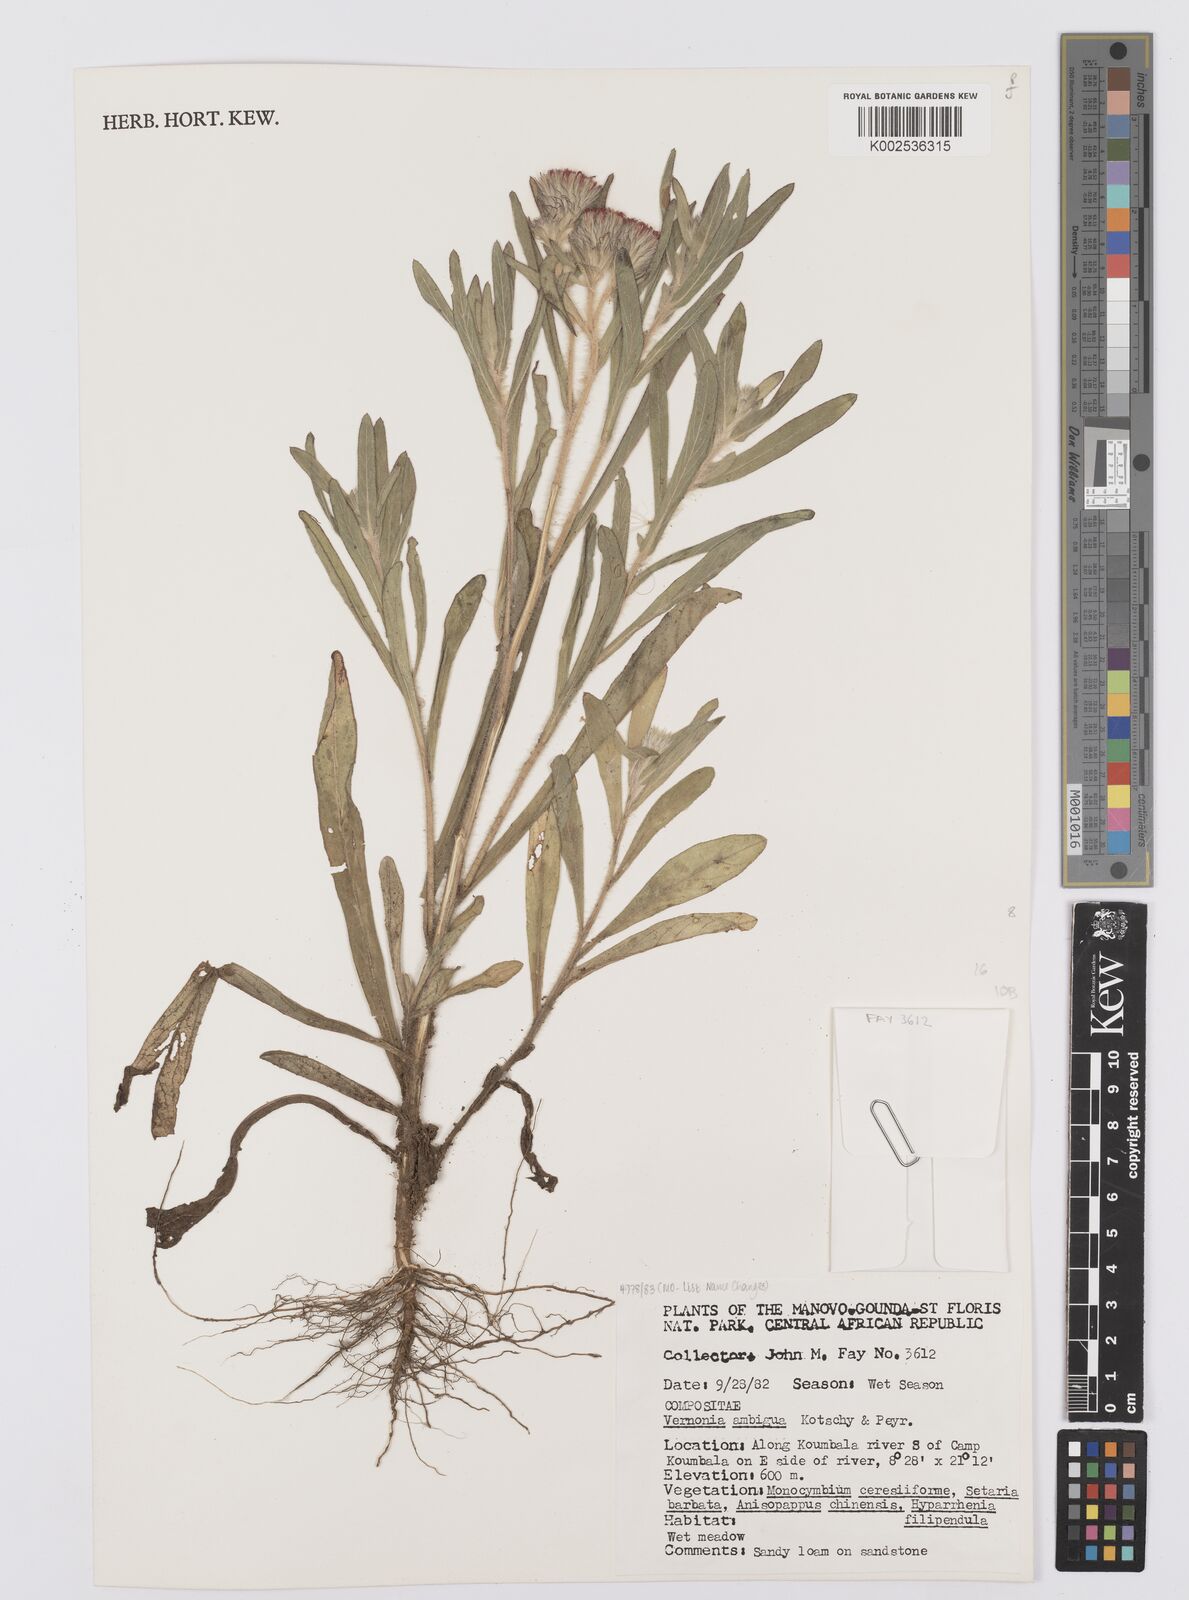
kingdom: Plantae
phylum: Tracheophyta
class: Magnoliopsida
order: Asterales
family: Asteraceae
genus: Vernoniastrum
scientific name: Vernoniastrum ambiguum
